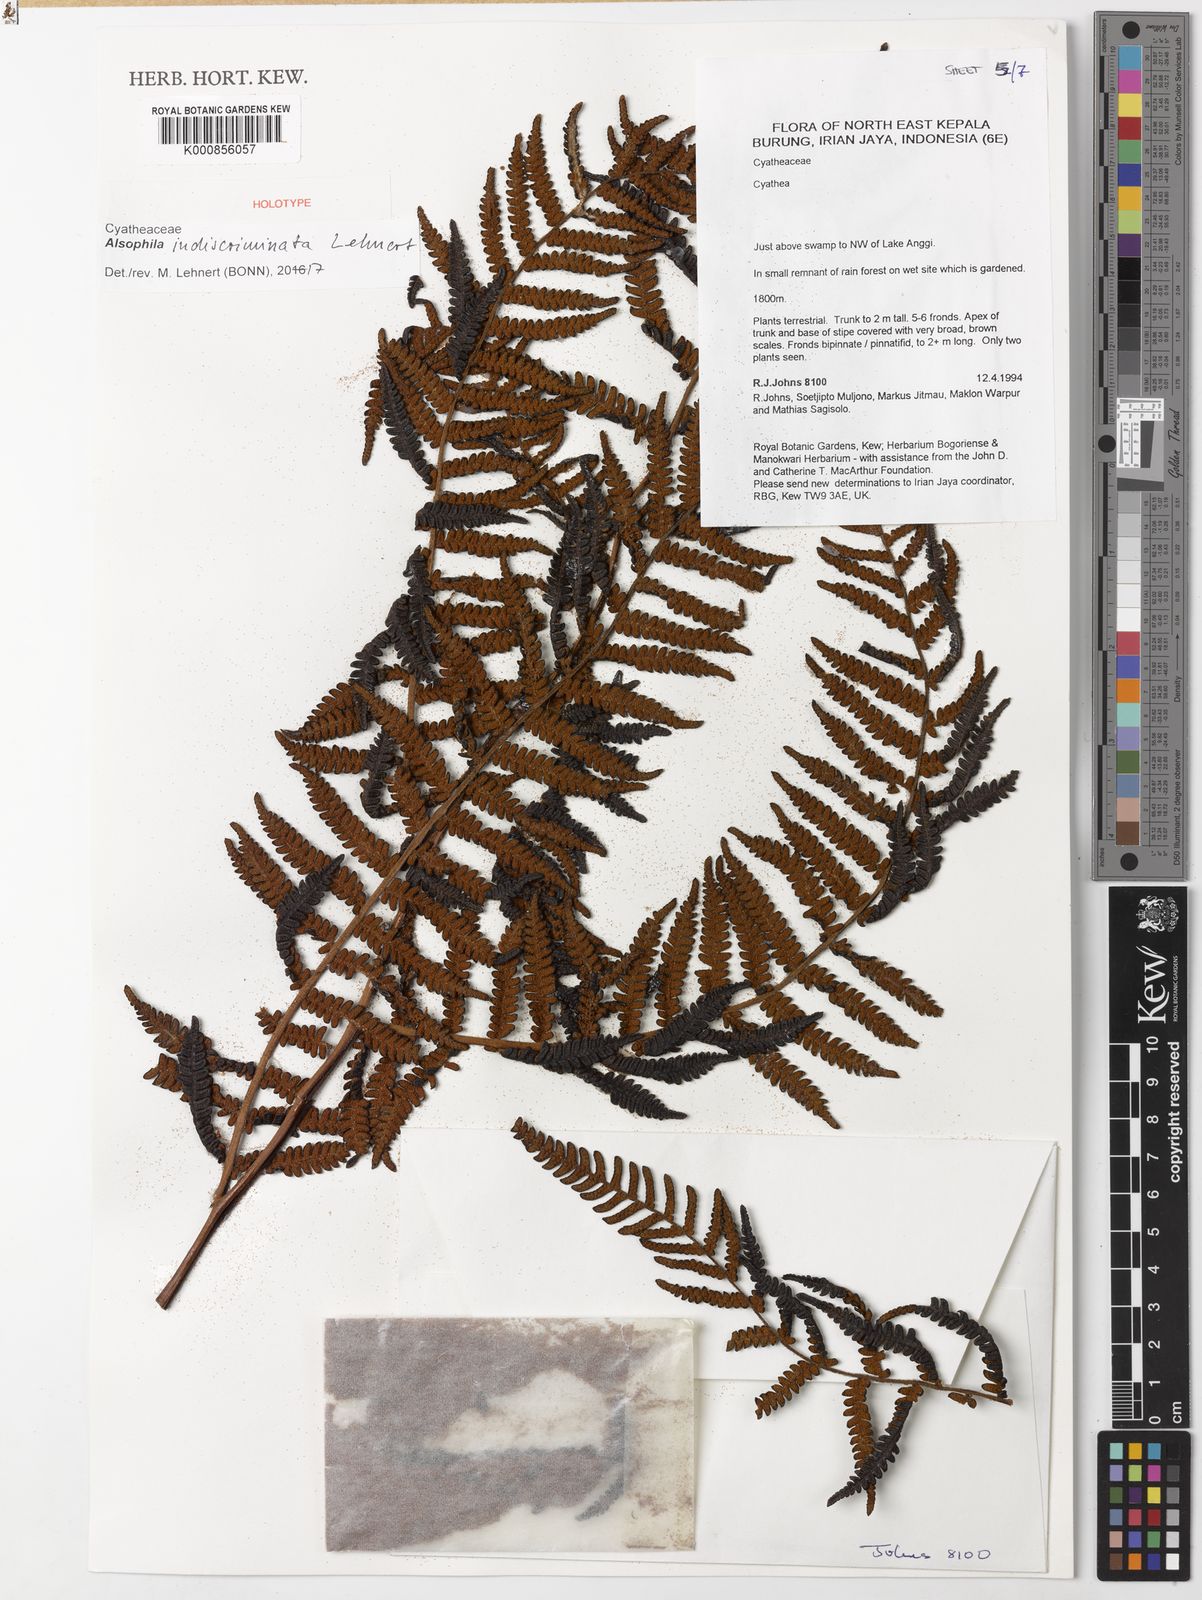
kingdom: Plantae
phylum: Tracheophyta
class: Polypodiopsida
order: Cyatheales
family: Cyatheaceae
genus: Alsophila
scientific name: Alsophila indiscriminata
